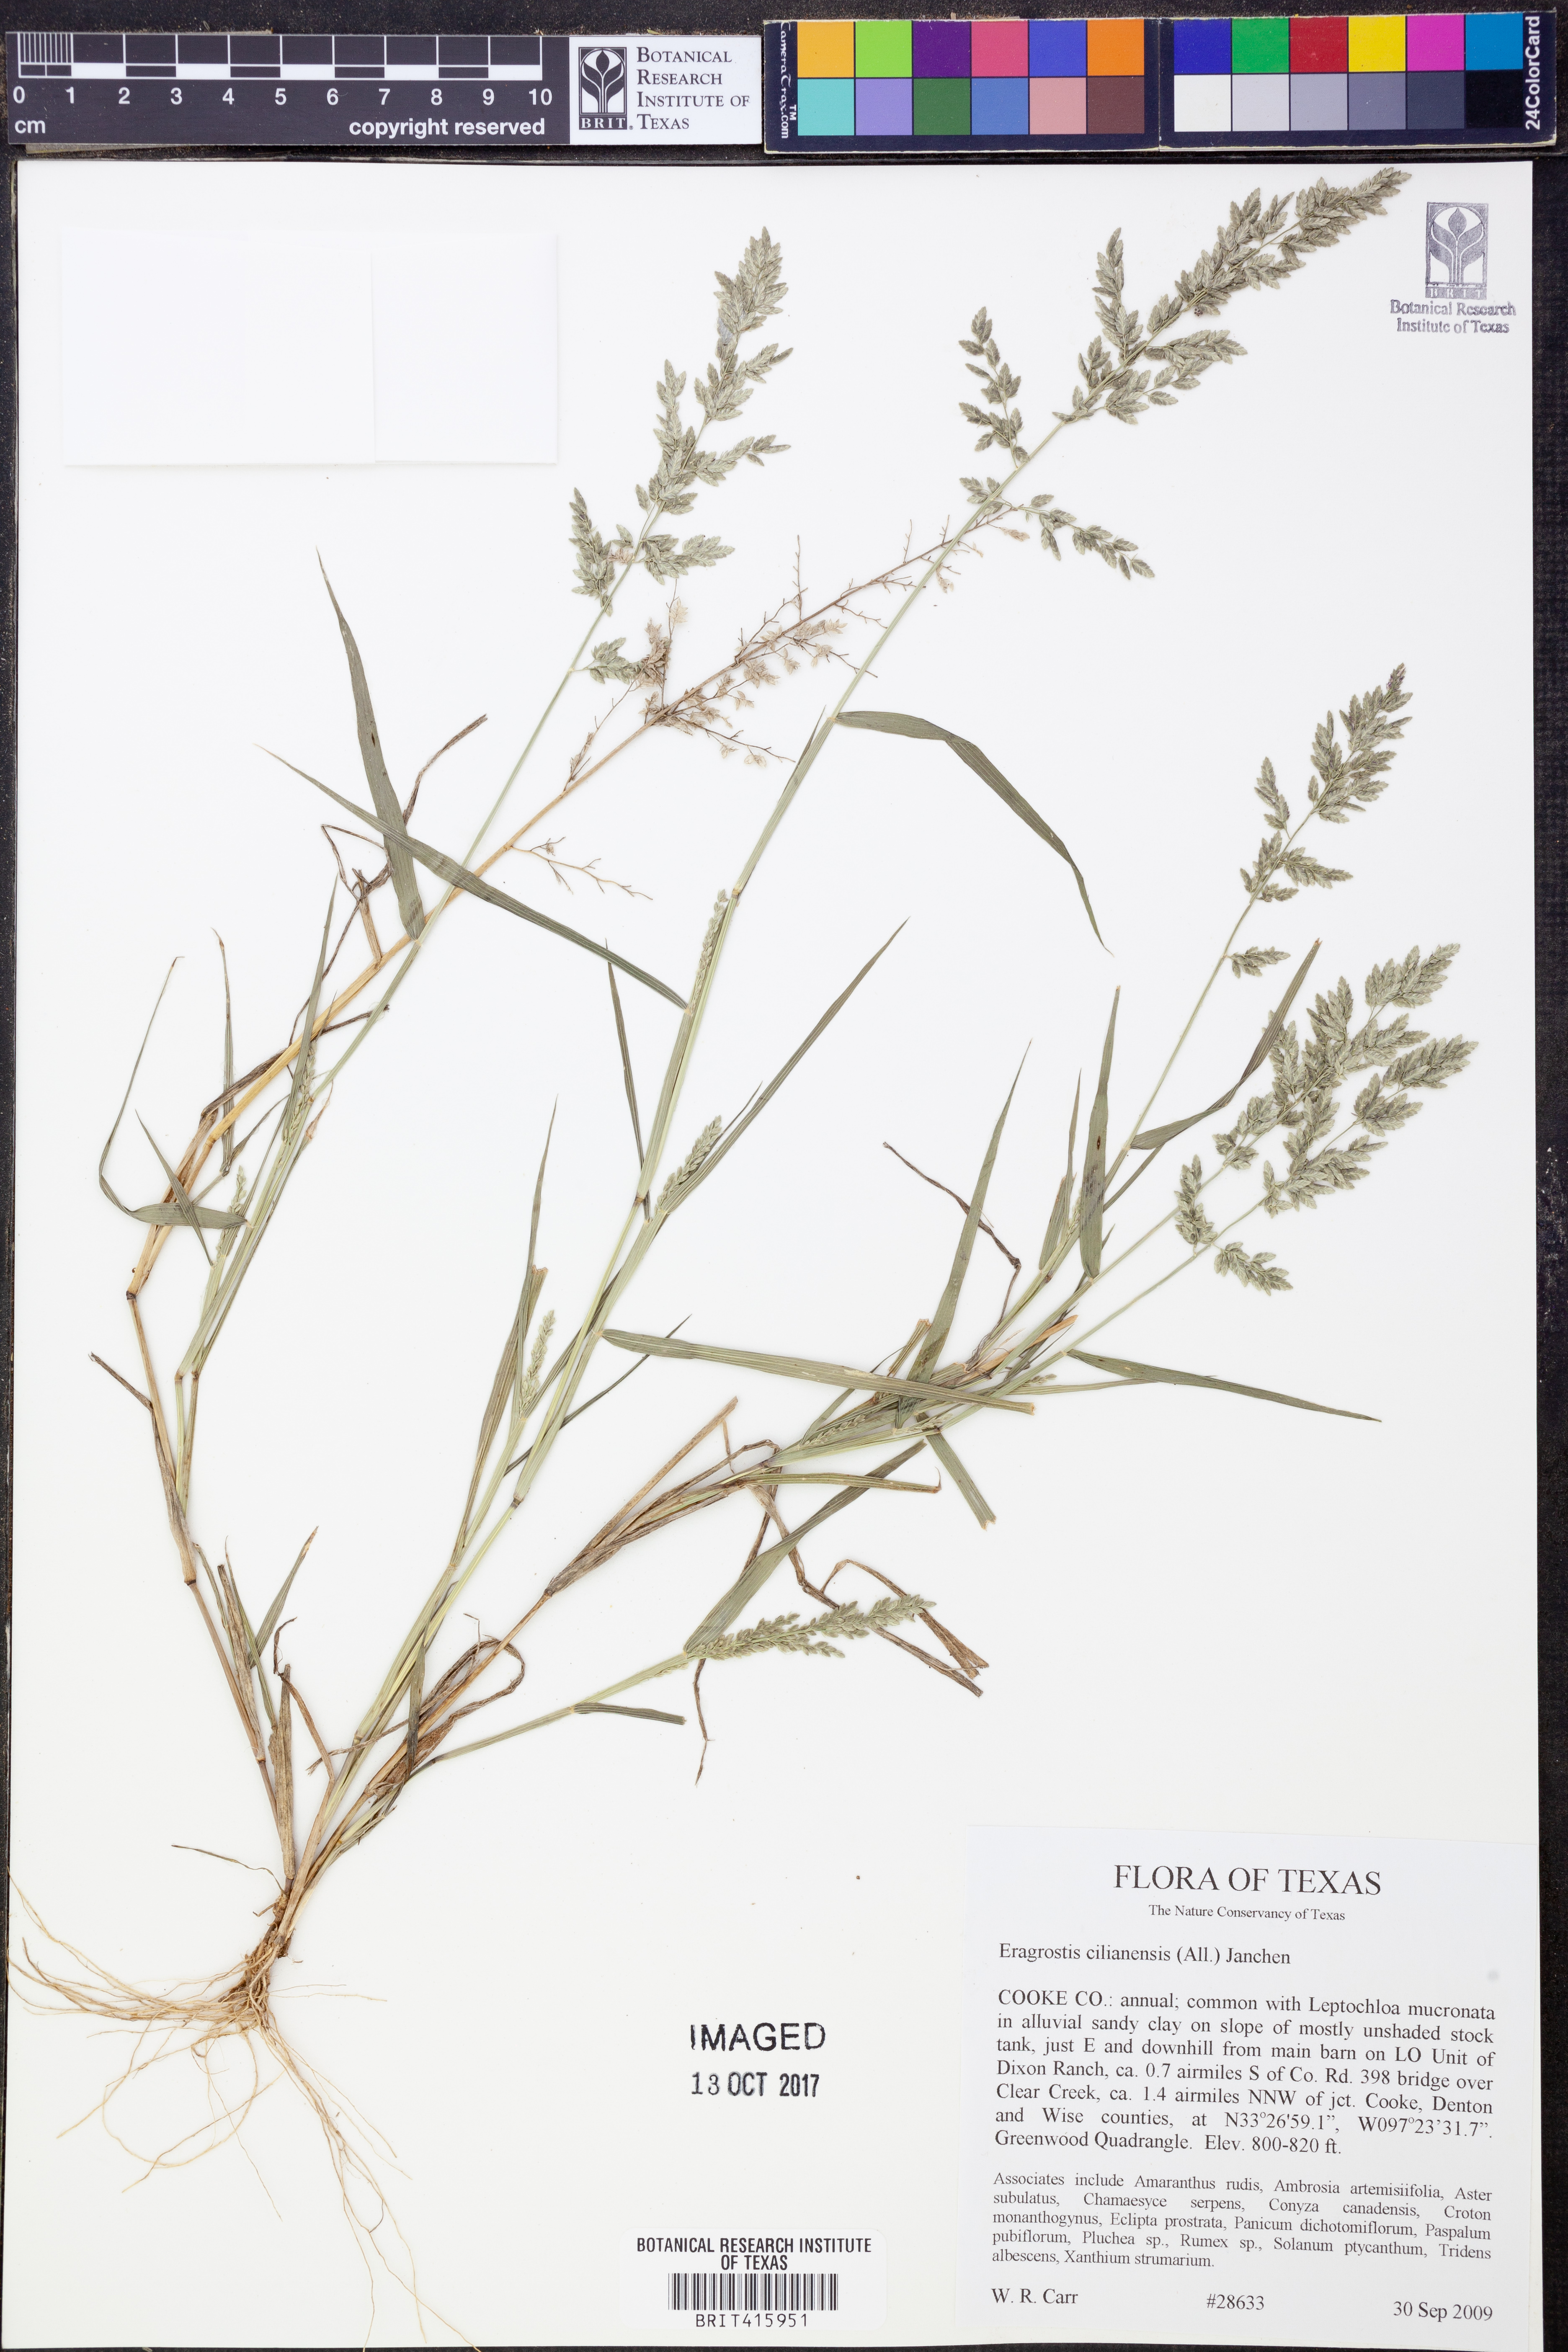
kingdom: Plantae
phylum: Tracheophyta
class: Liliopsida
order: Poales
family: Poaceae
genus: Eragrostis
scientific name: Eragrostis cilianensis
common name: Stinkgrass
